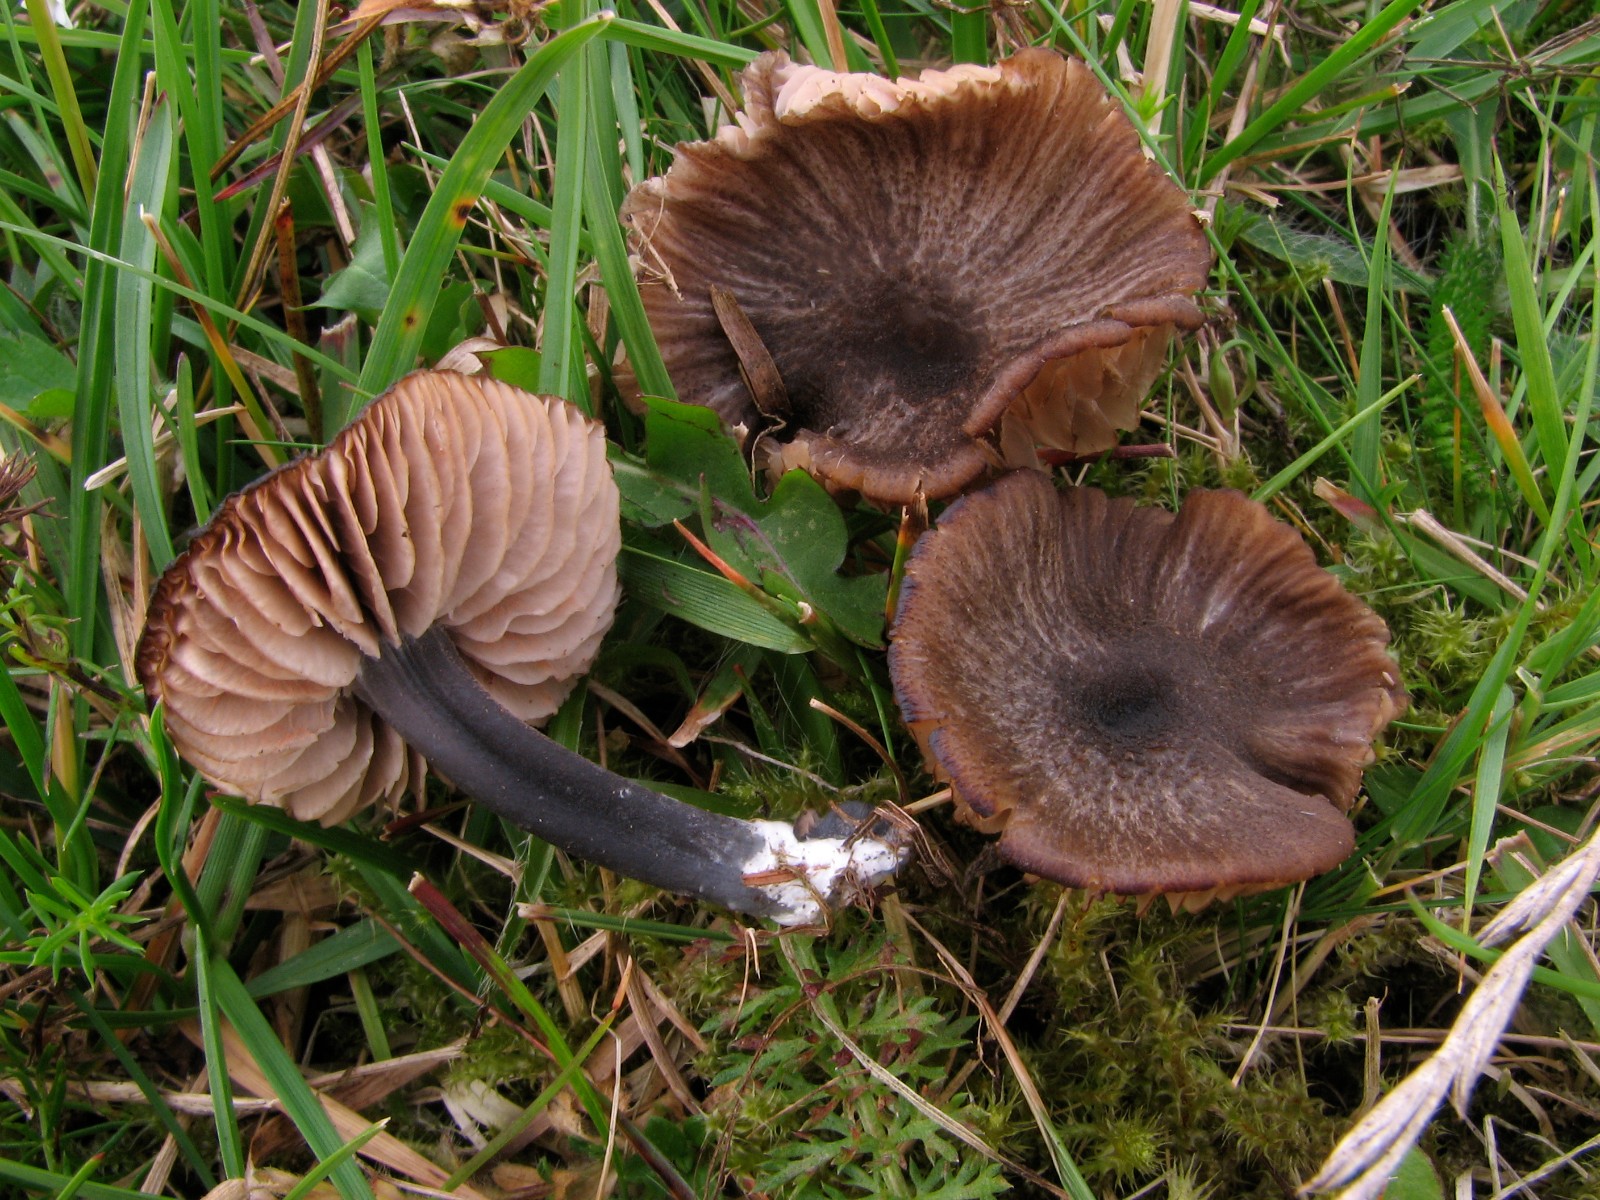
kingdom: Fungi
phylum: Basidiomycota
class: Agaricomycetes
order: Agaricales
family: Entolomataceae
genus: Entoloma
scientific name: Entoloma poliopus
